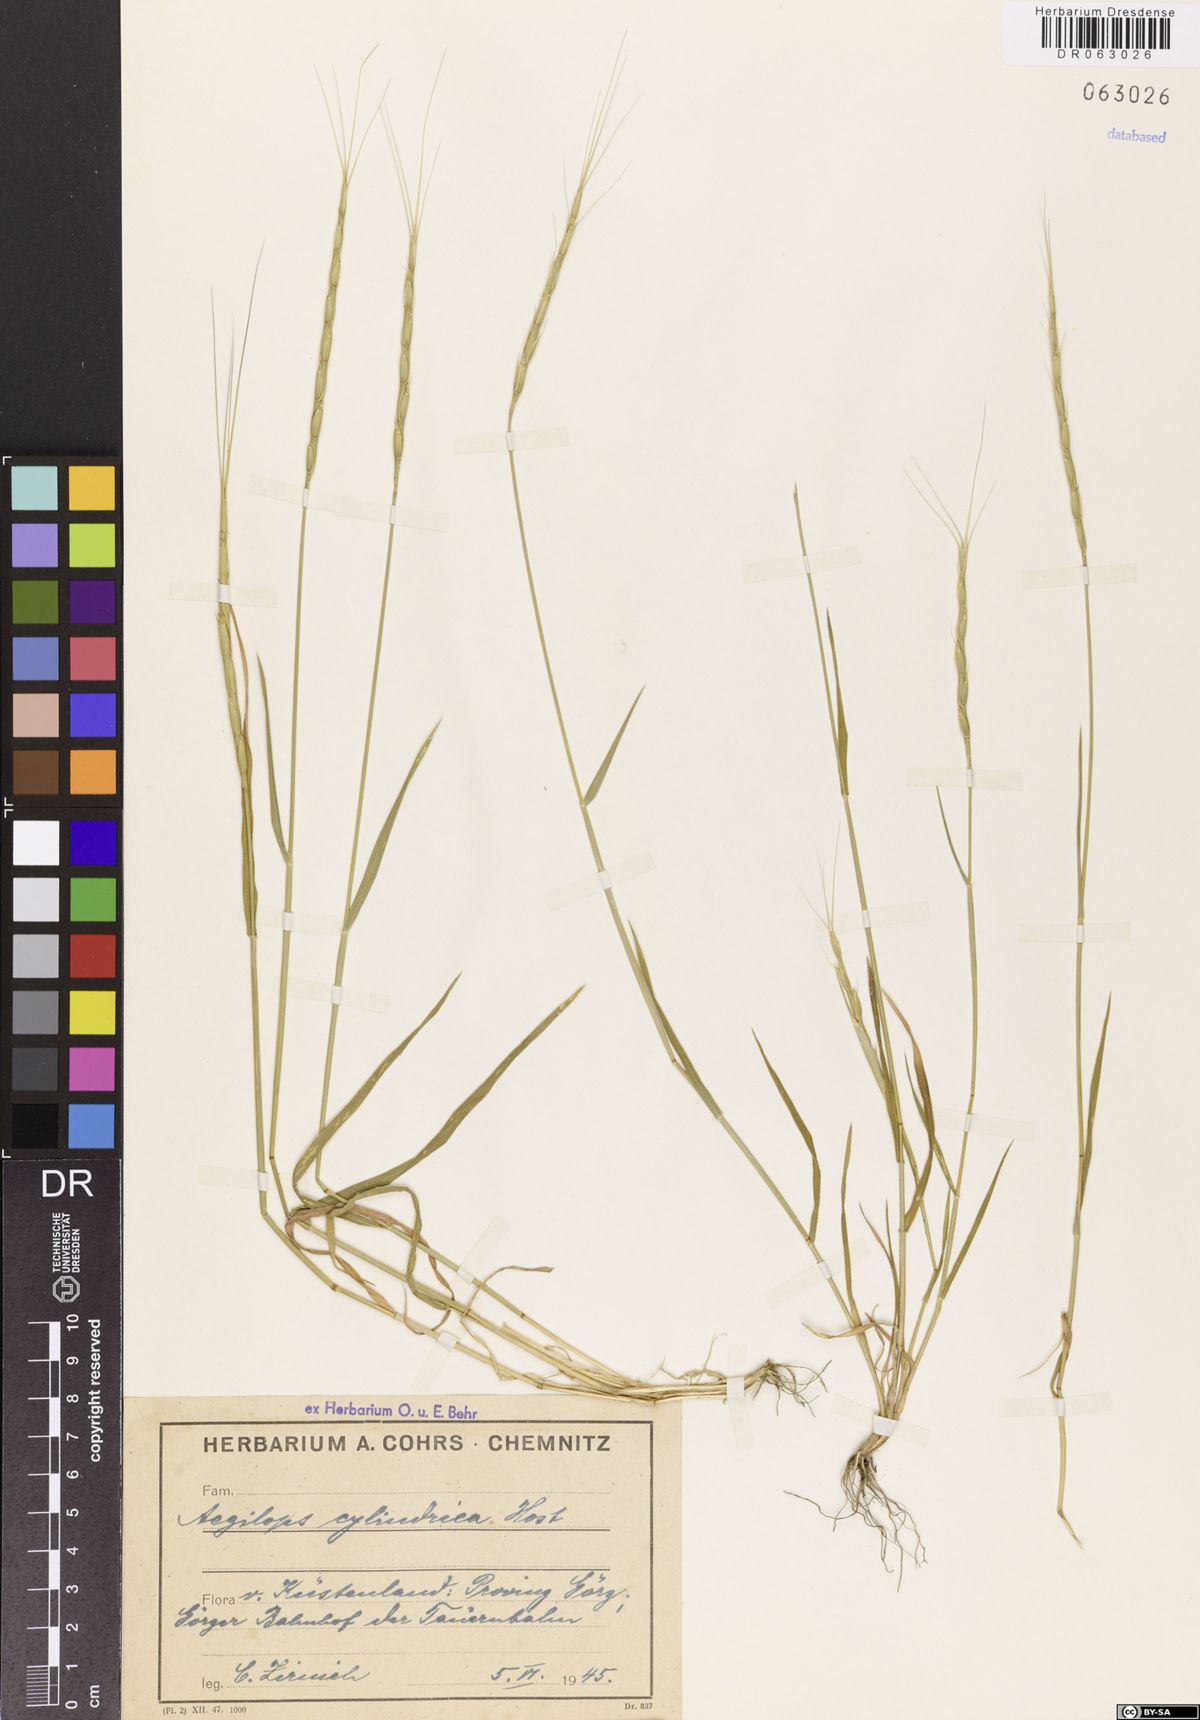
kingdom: Plantae
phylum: Tracheophyta
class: Liliopsida
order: Poales
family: Poaceae
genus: Aegilops
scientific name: Aegilops cylindrica
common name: Jointed goatgrass
